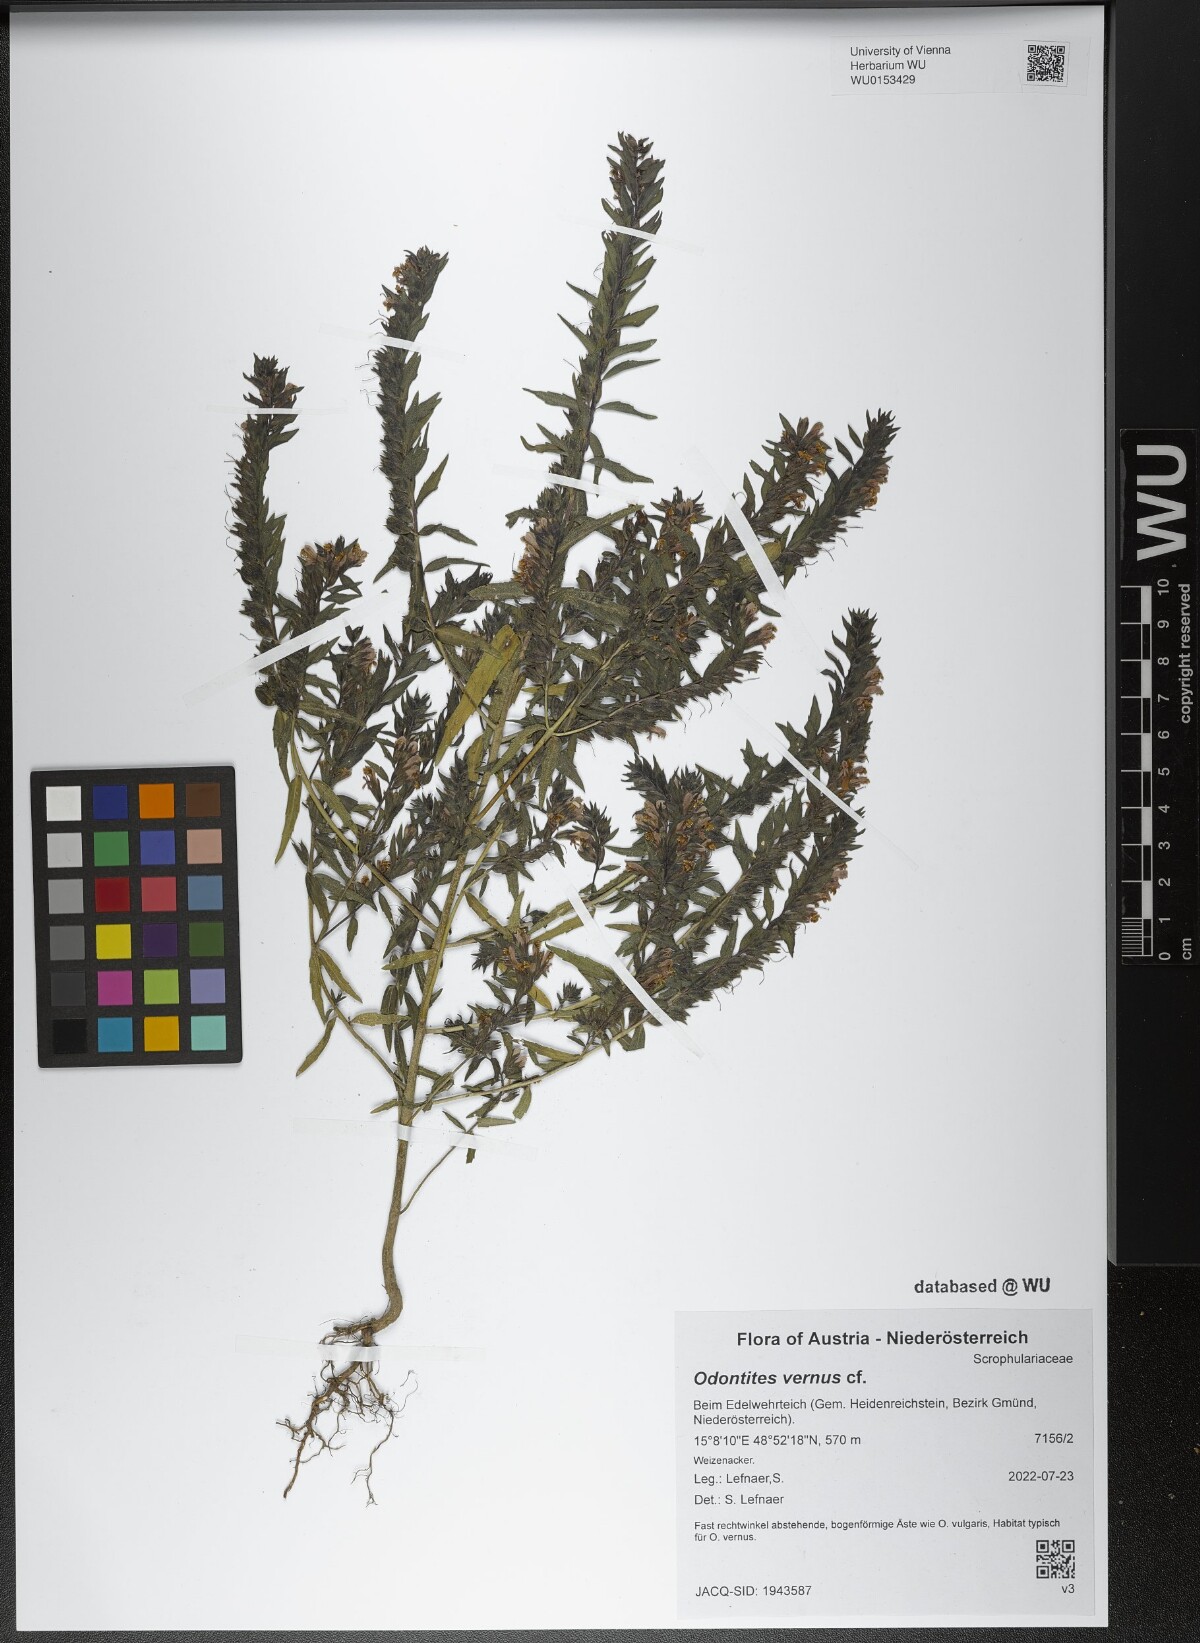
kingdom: Plantae
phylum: Tracheophyta
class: Magnoliopsida
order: Lamiales
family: Orobanchaceae
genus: Odontites
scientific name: Odontites vernus
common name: Red bartsia
